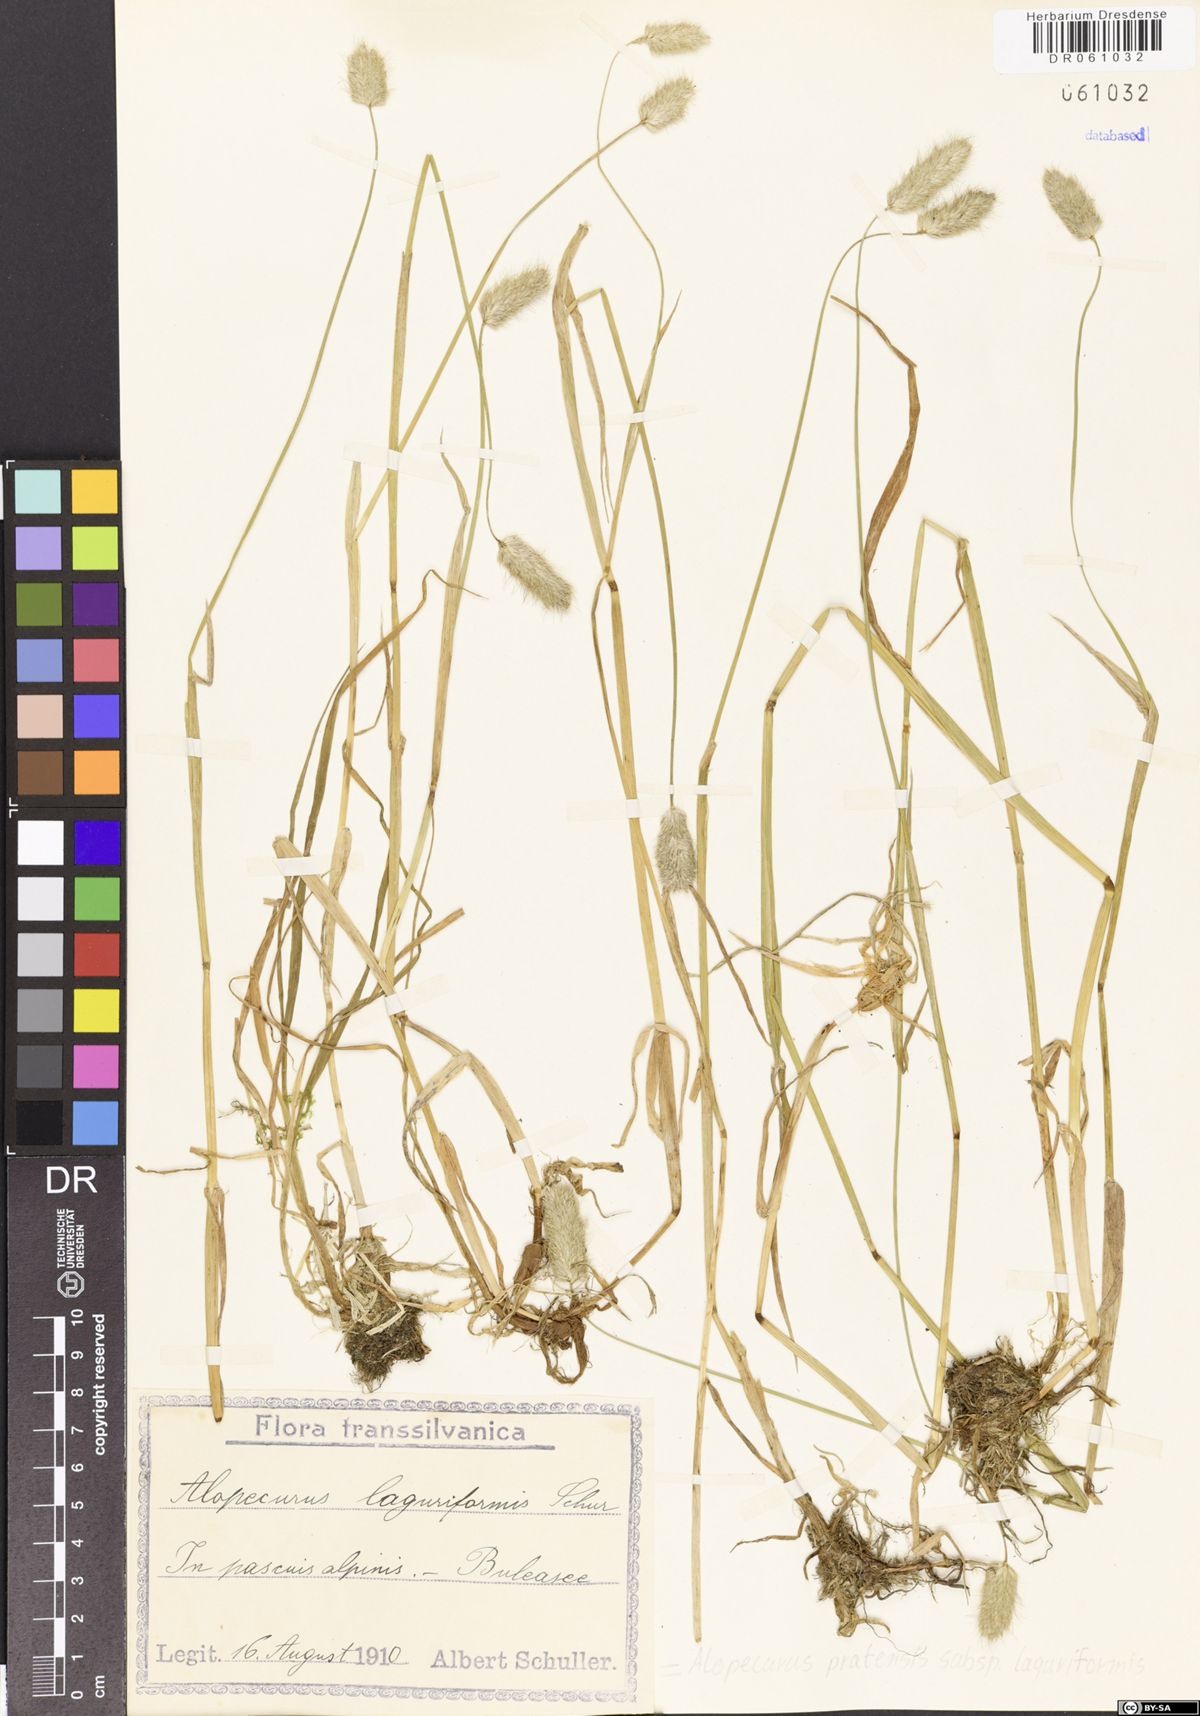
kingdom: Plantae
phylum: Tracheophyta
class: Liliopsida
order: Poales
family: Poaceae
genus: Alopecurus
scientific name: Alopecurus pratensis
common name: Meadow foxtail
